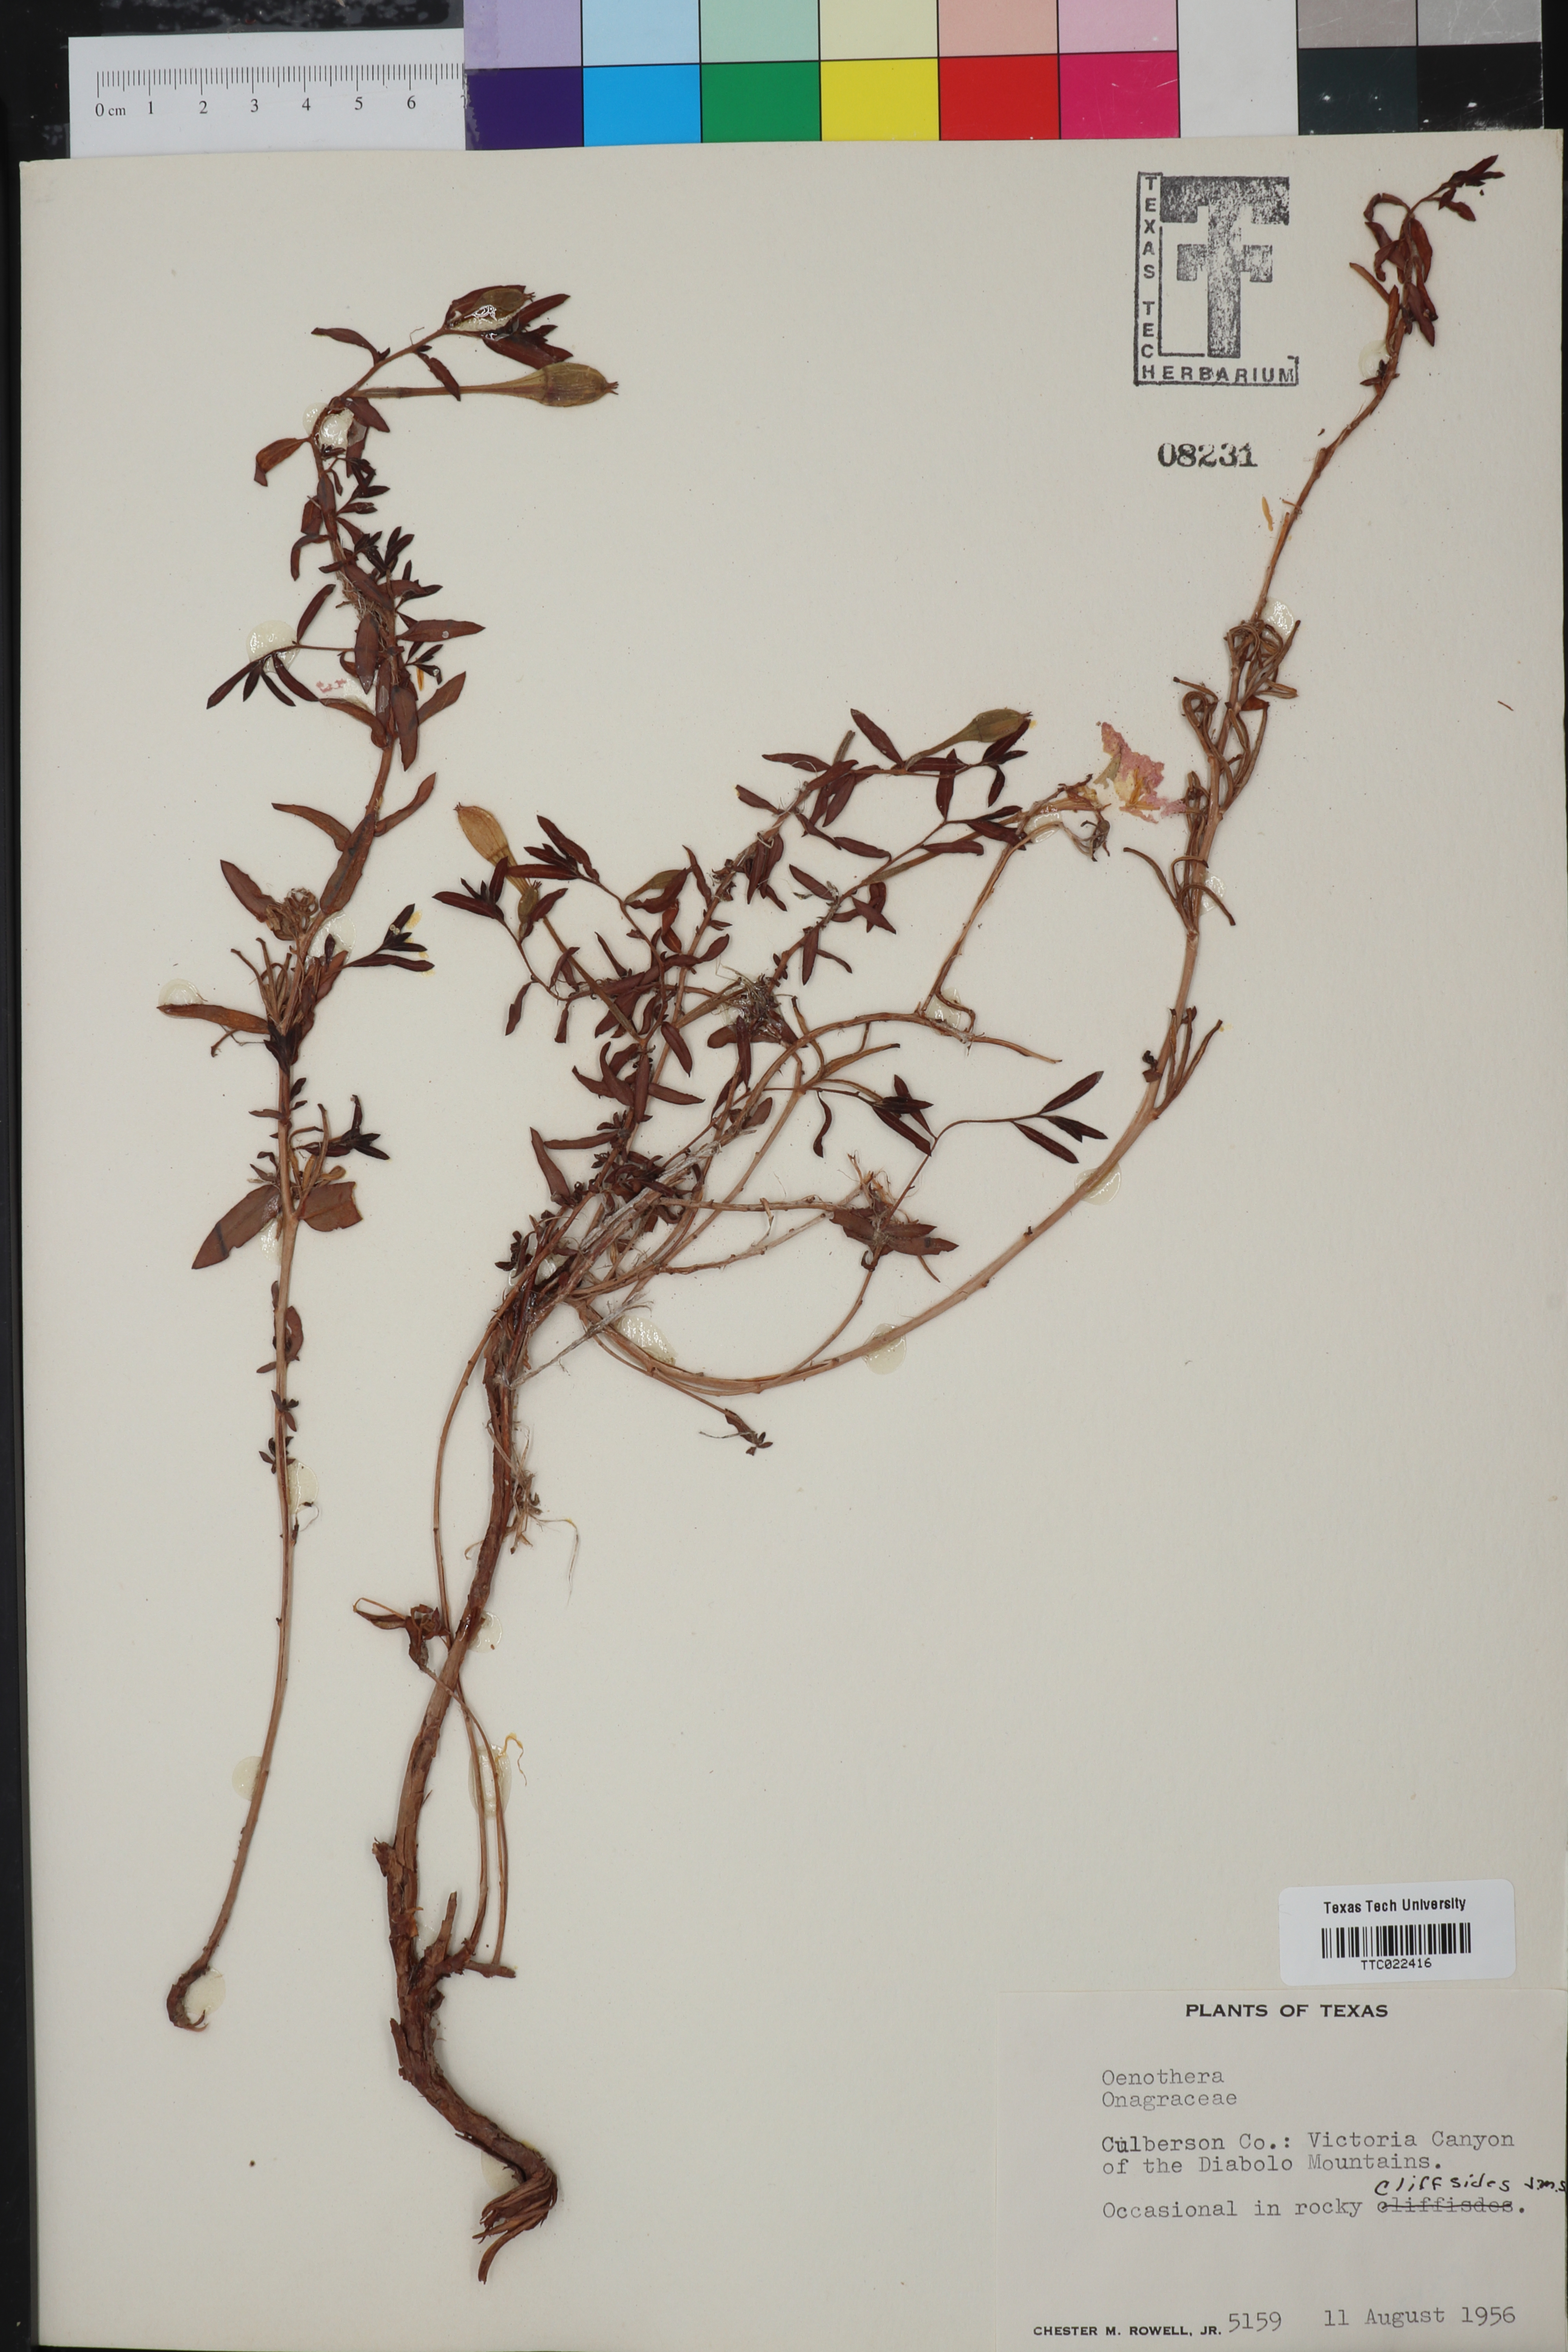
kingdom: Plantae
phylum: Tracheophyta
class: Magnoliopsida
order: Myrtales
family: Onagraceae
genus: Oenothera
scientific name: Oenothera
